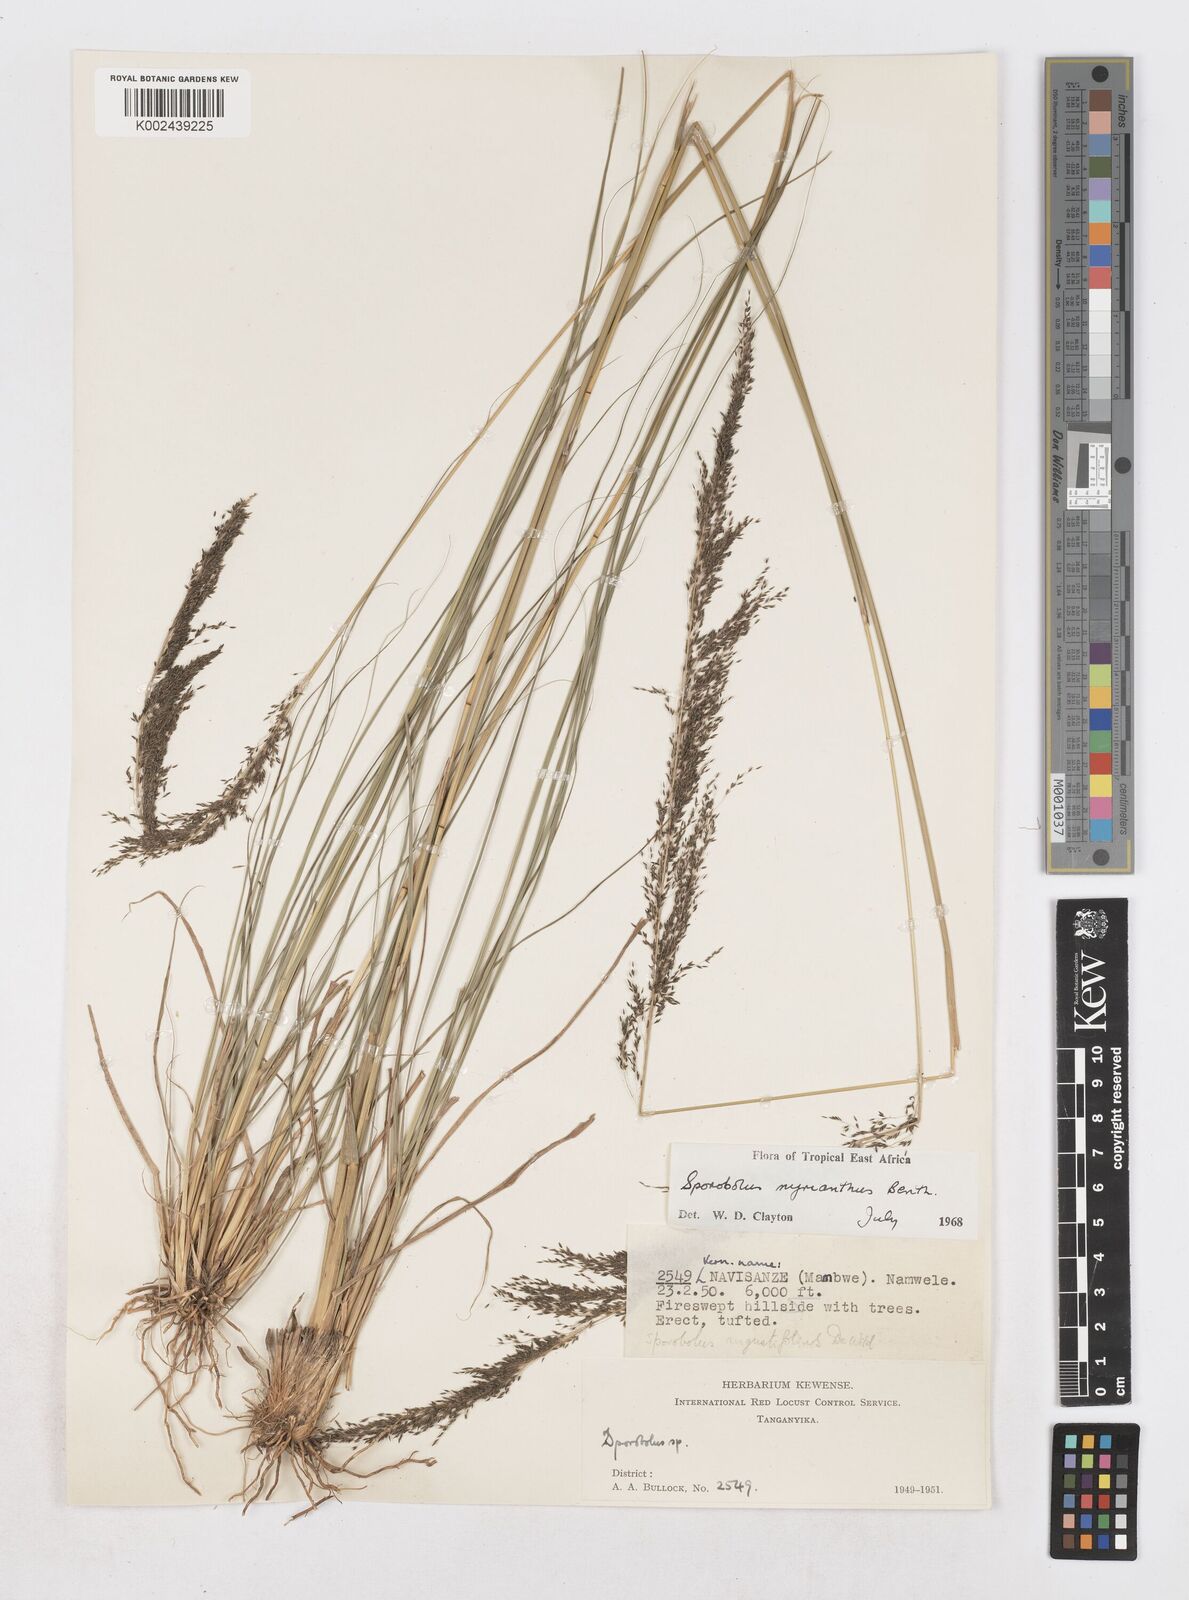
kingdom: Plantae
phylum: Tracheophyta
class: Liliopsida
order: Poales
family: Poaceae
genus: Sporobolus
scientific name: Sporobolus myrianthus
